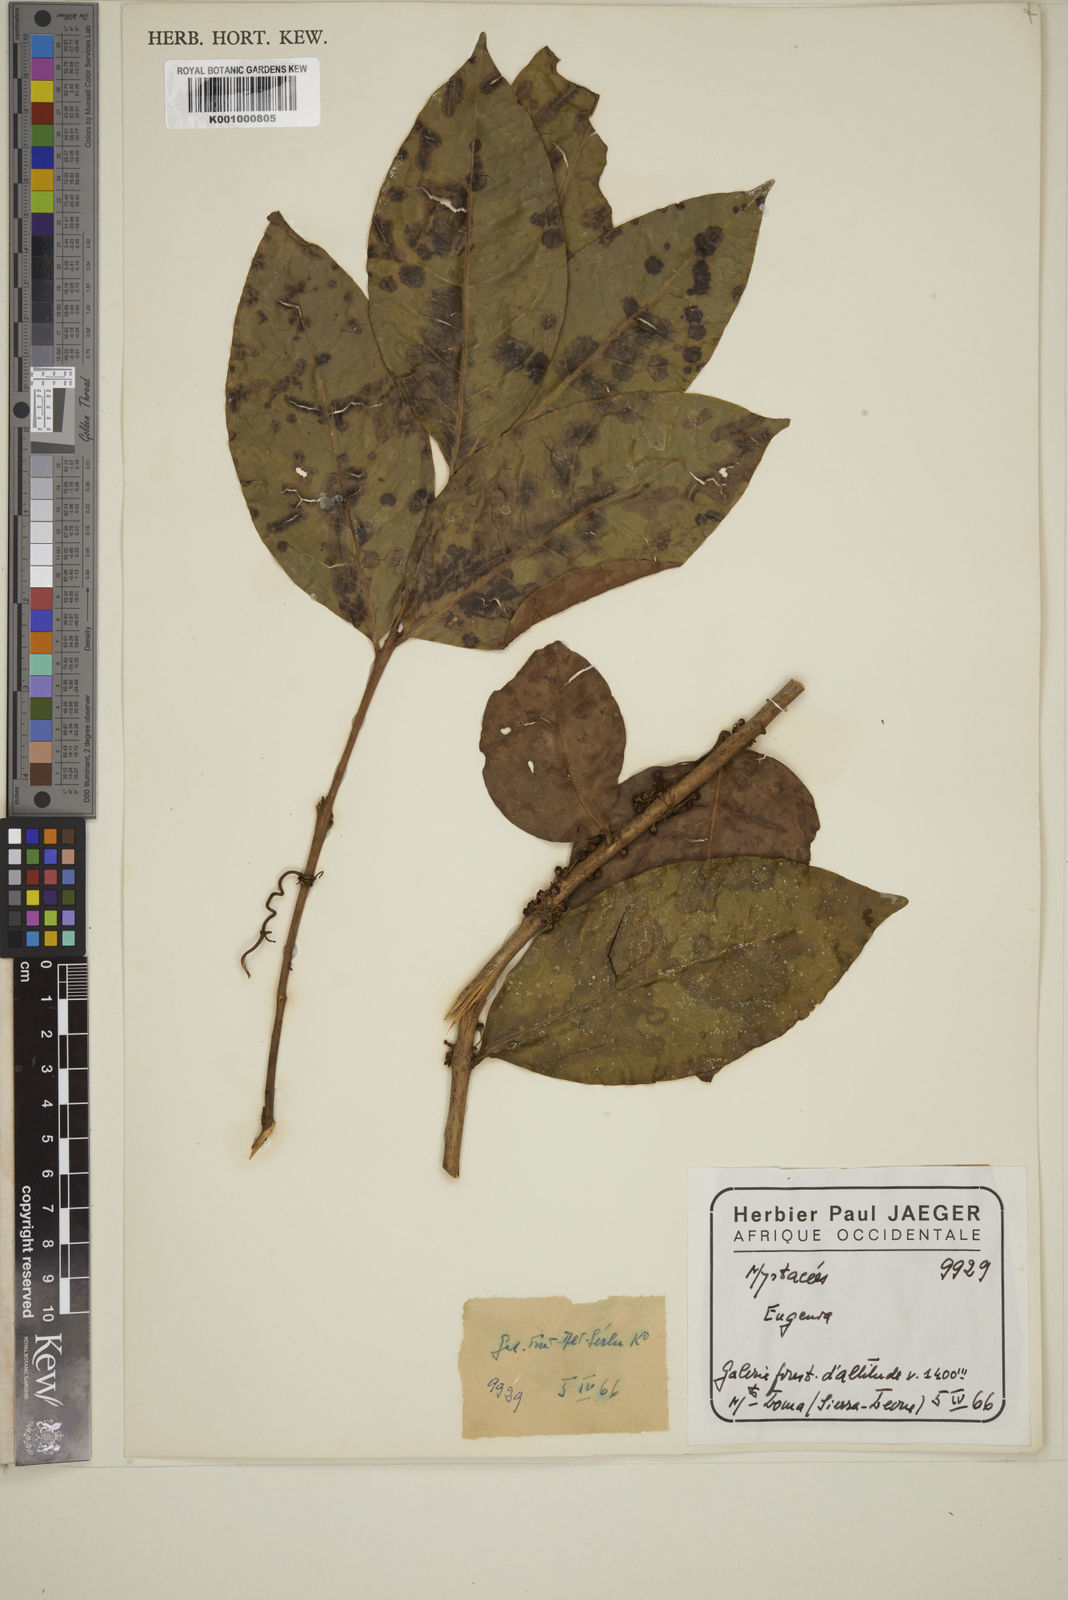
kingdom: Plantae
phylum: Tracheophyta
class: Magnoliopsida
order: Myrtales
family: Myrtaceae
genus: Eugenia
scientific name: Eugenia
